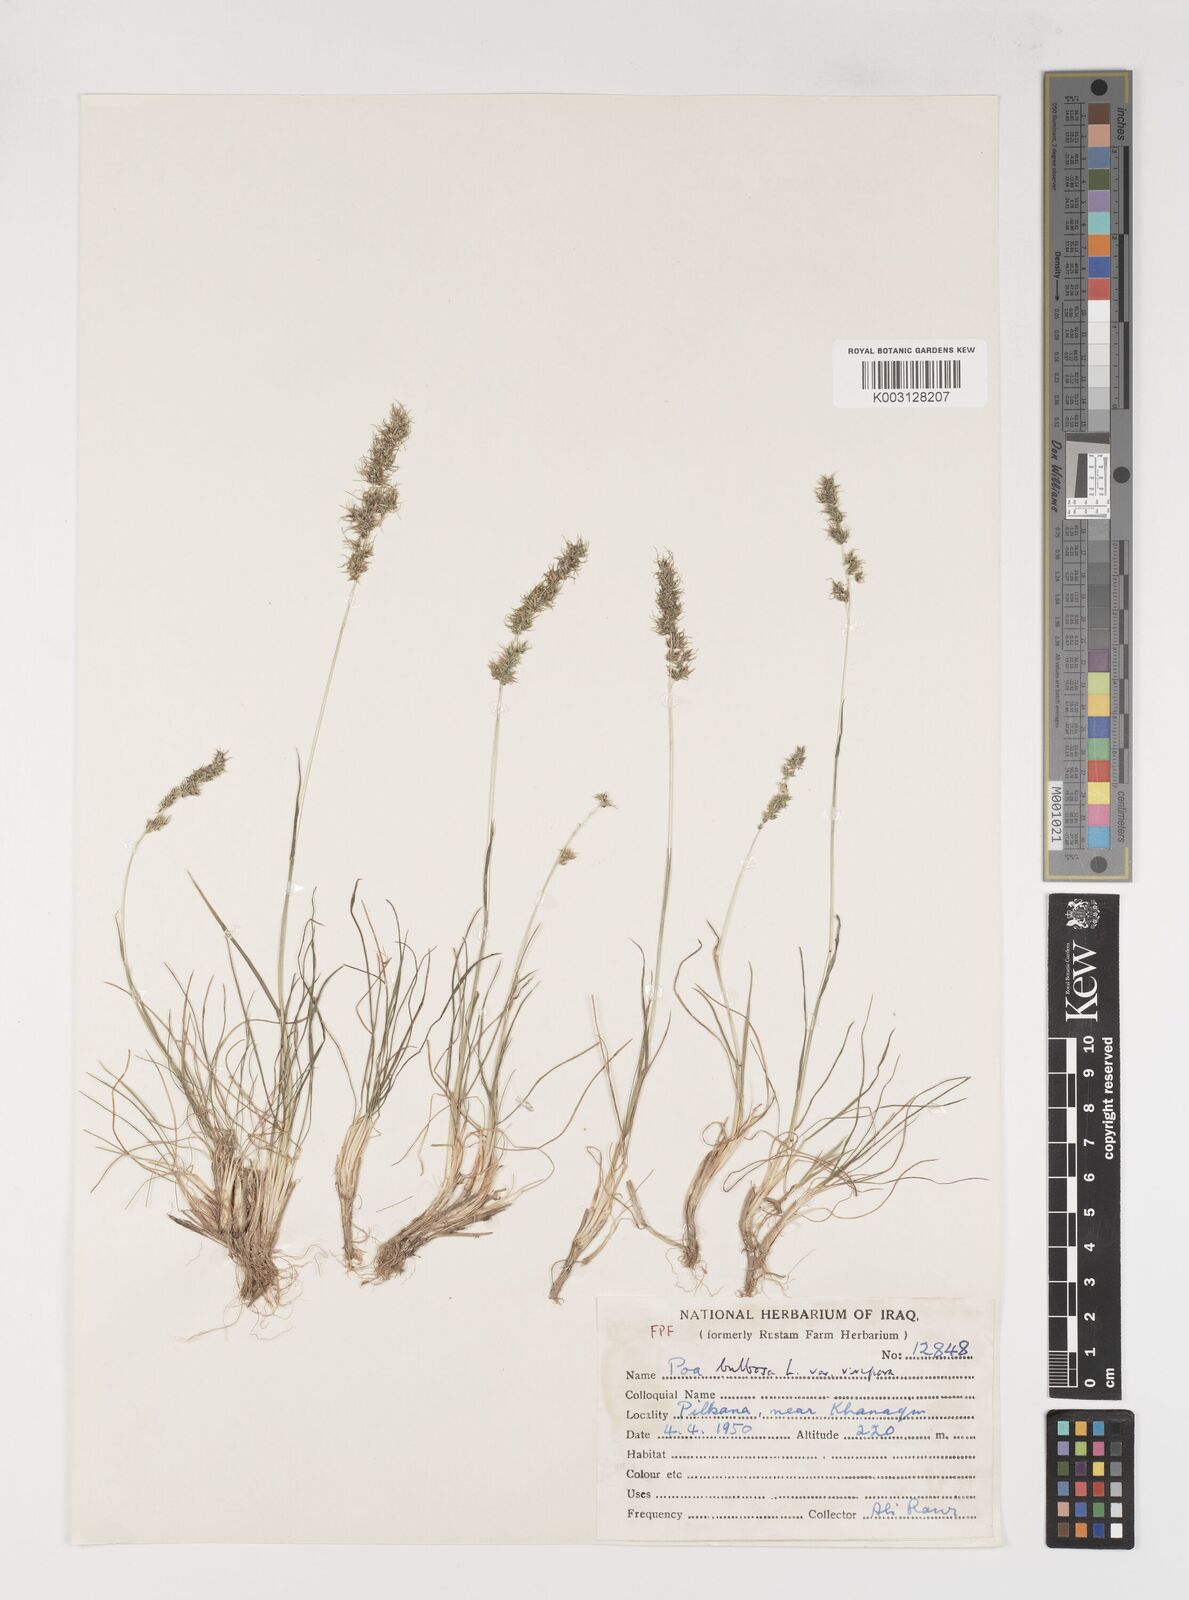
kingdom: Plantae
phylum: Tracheophyta
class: Liliopsida
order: Poales
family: Poaceae
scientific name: Poaceae
